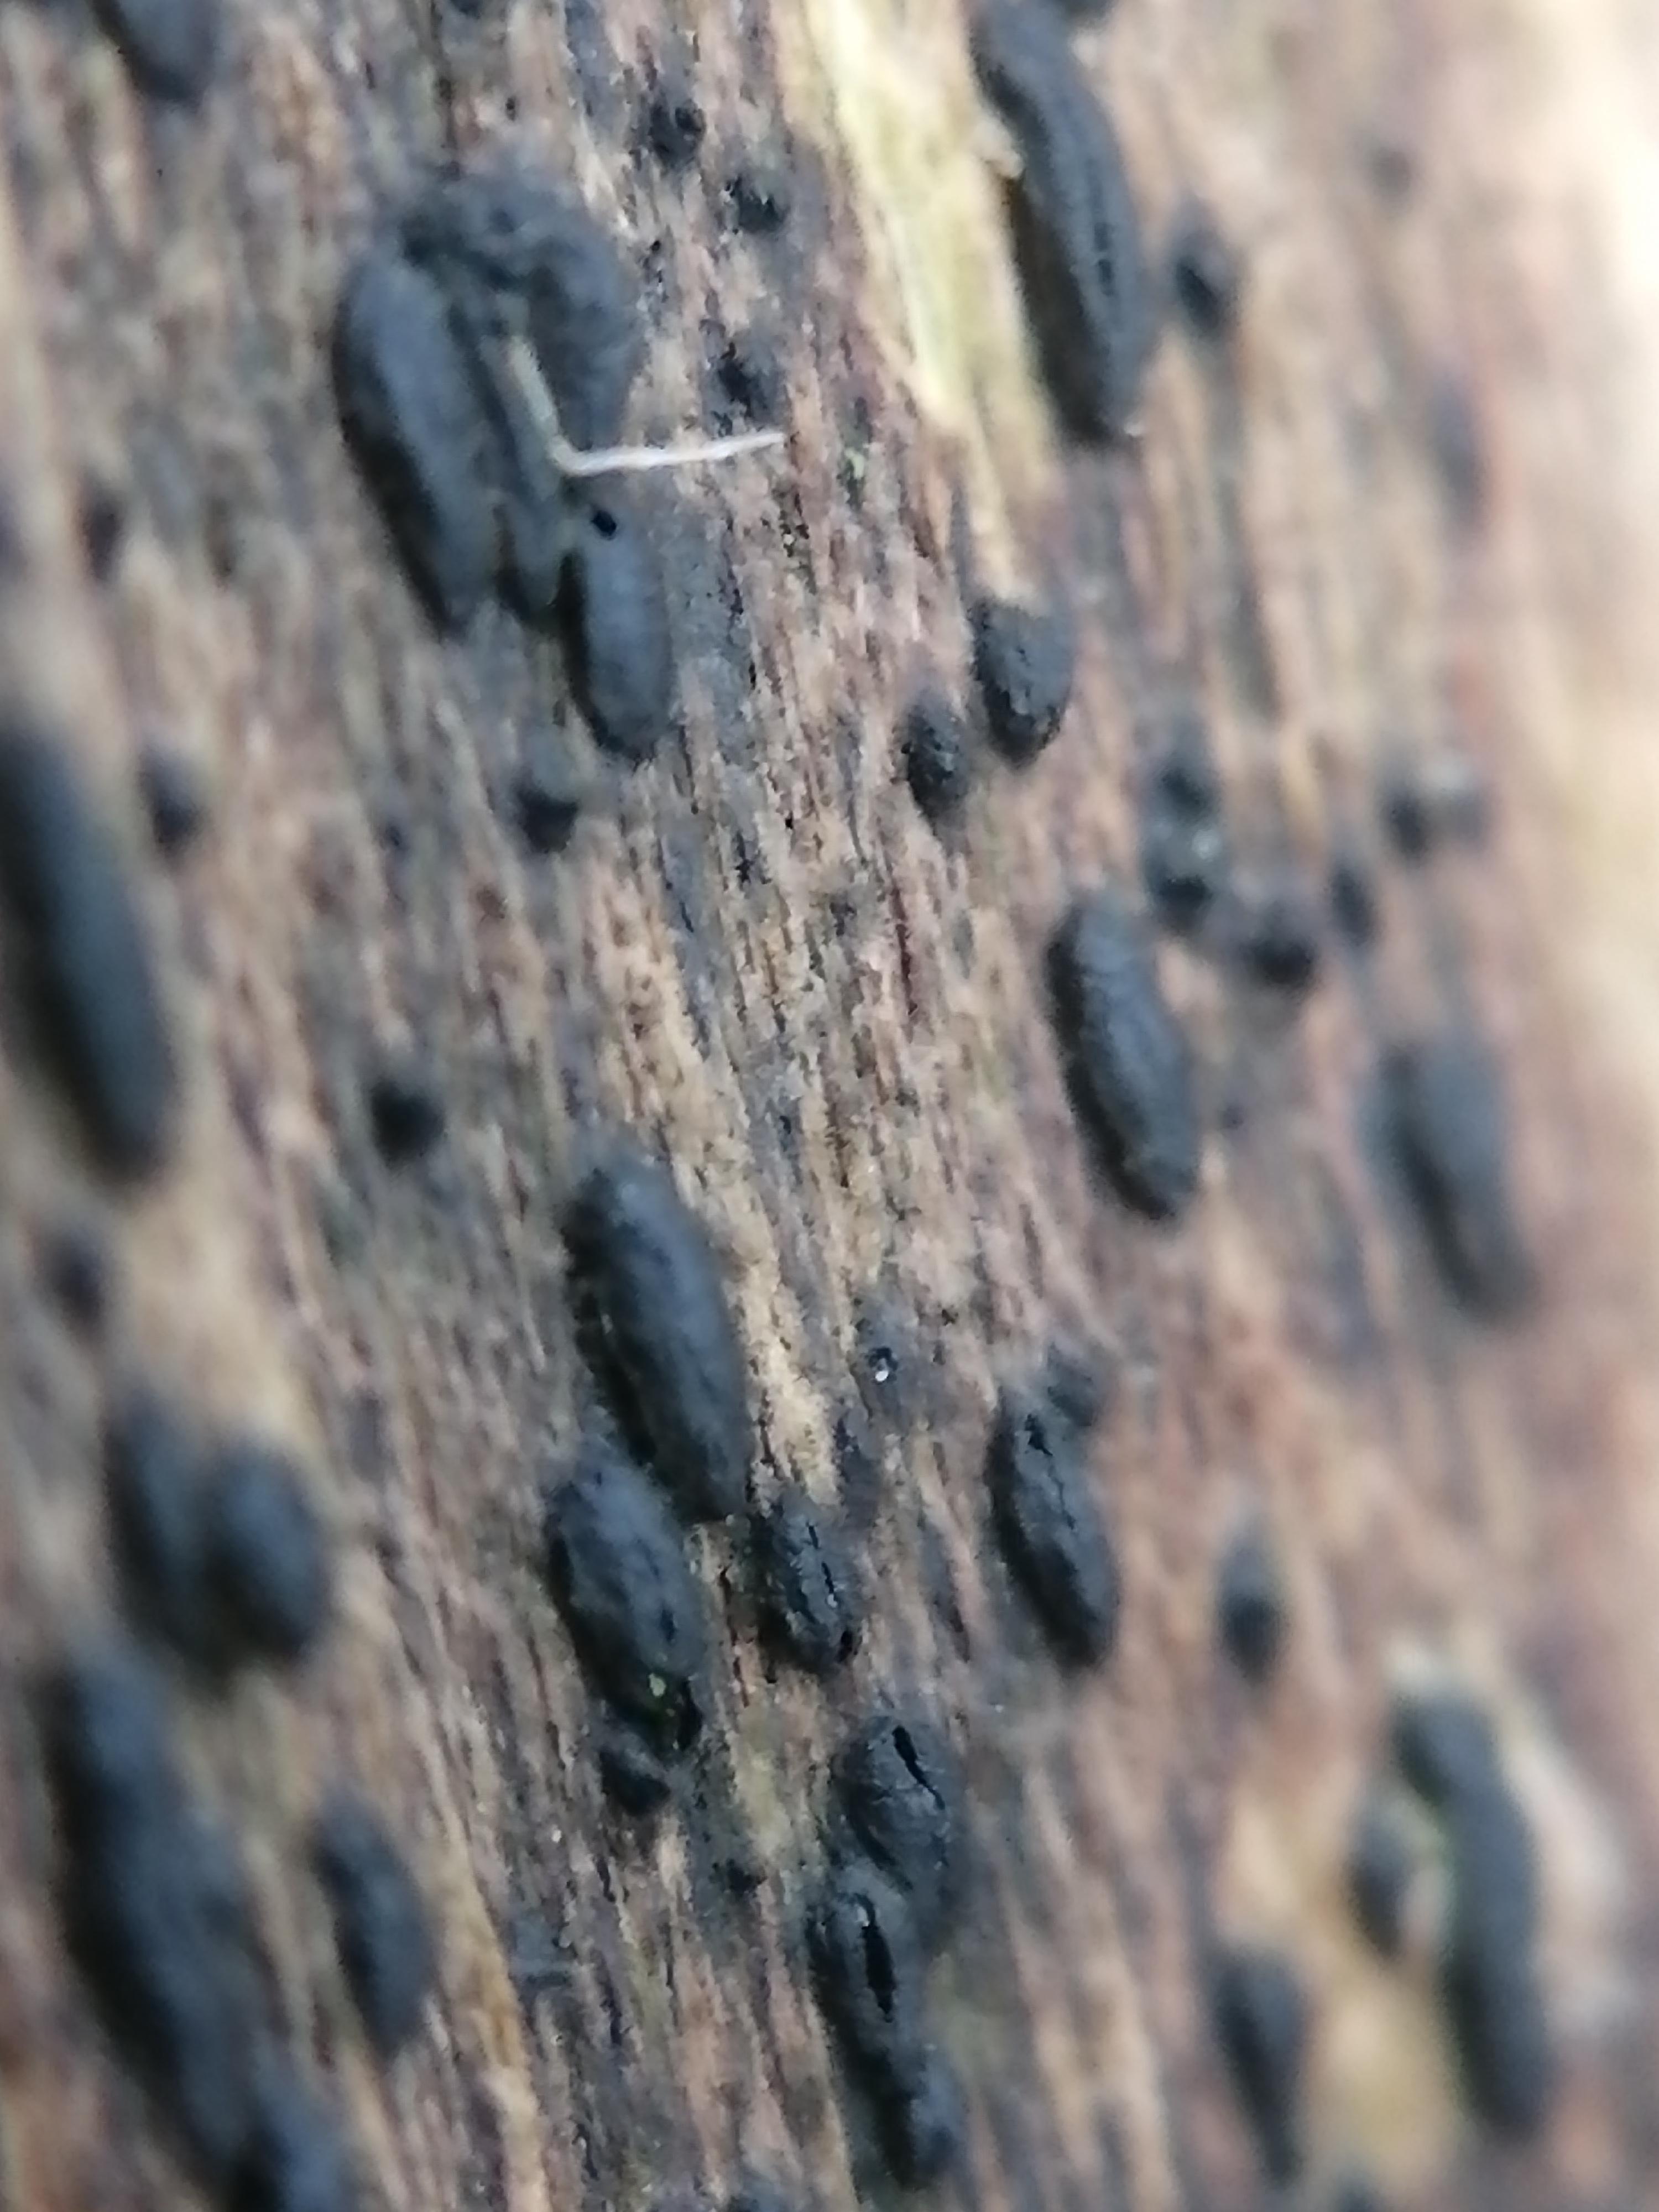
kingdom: Fungi
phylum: Ascomycota
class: Dothideomycetes
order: Hysteriales
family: Hysteriaceae
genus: Hysterium
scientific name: Hysterium
